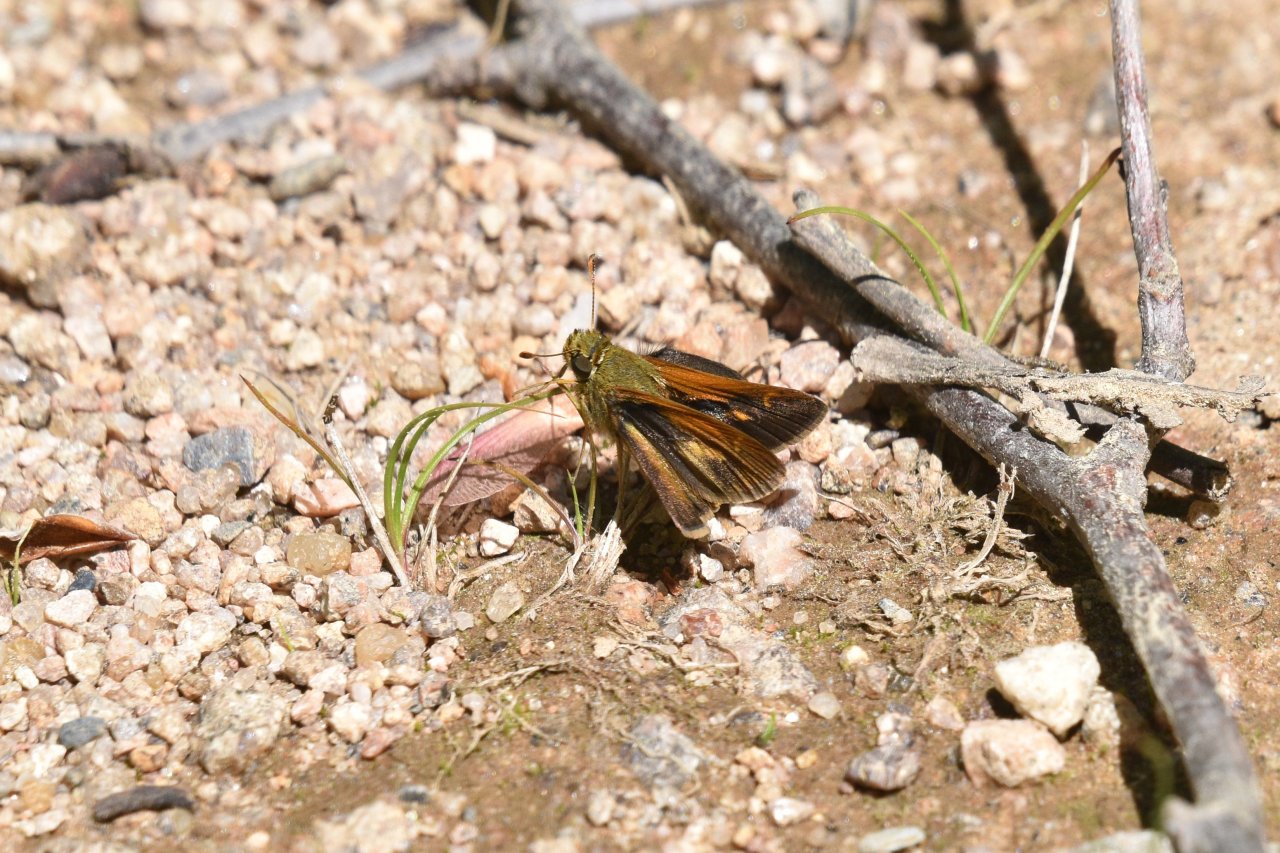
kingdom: Animalia
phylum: Arthropoda
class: Insecta
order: Lepidoptera
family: Hesperiidae
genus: Polites
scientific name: Polites coras
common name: Peck's Skipper
